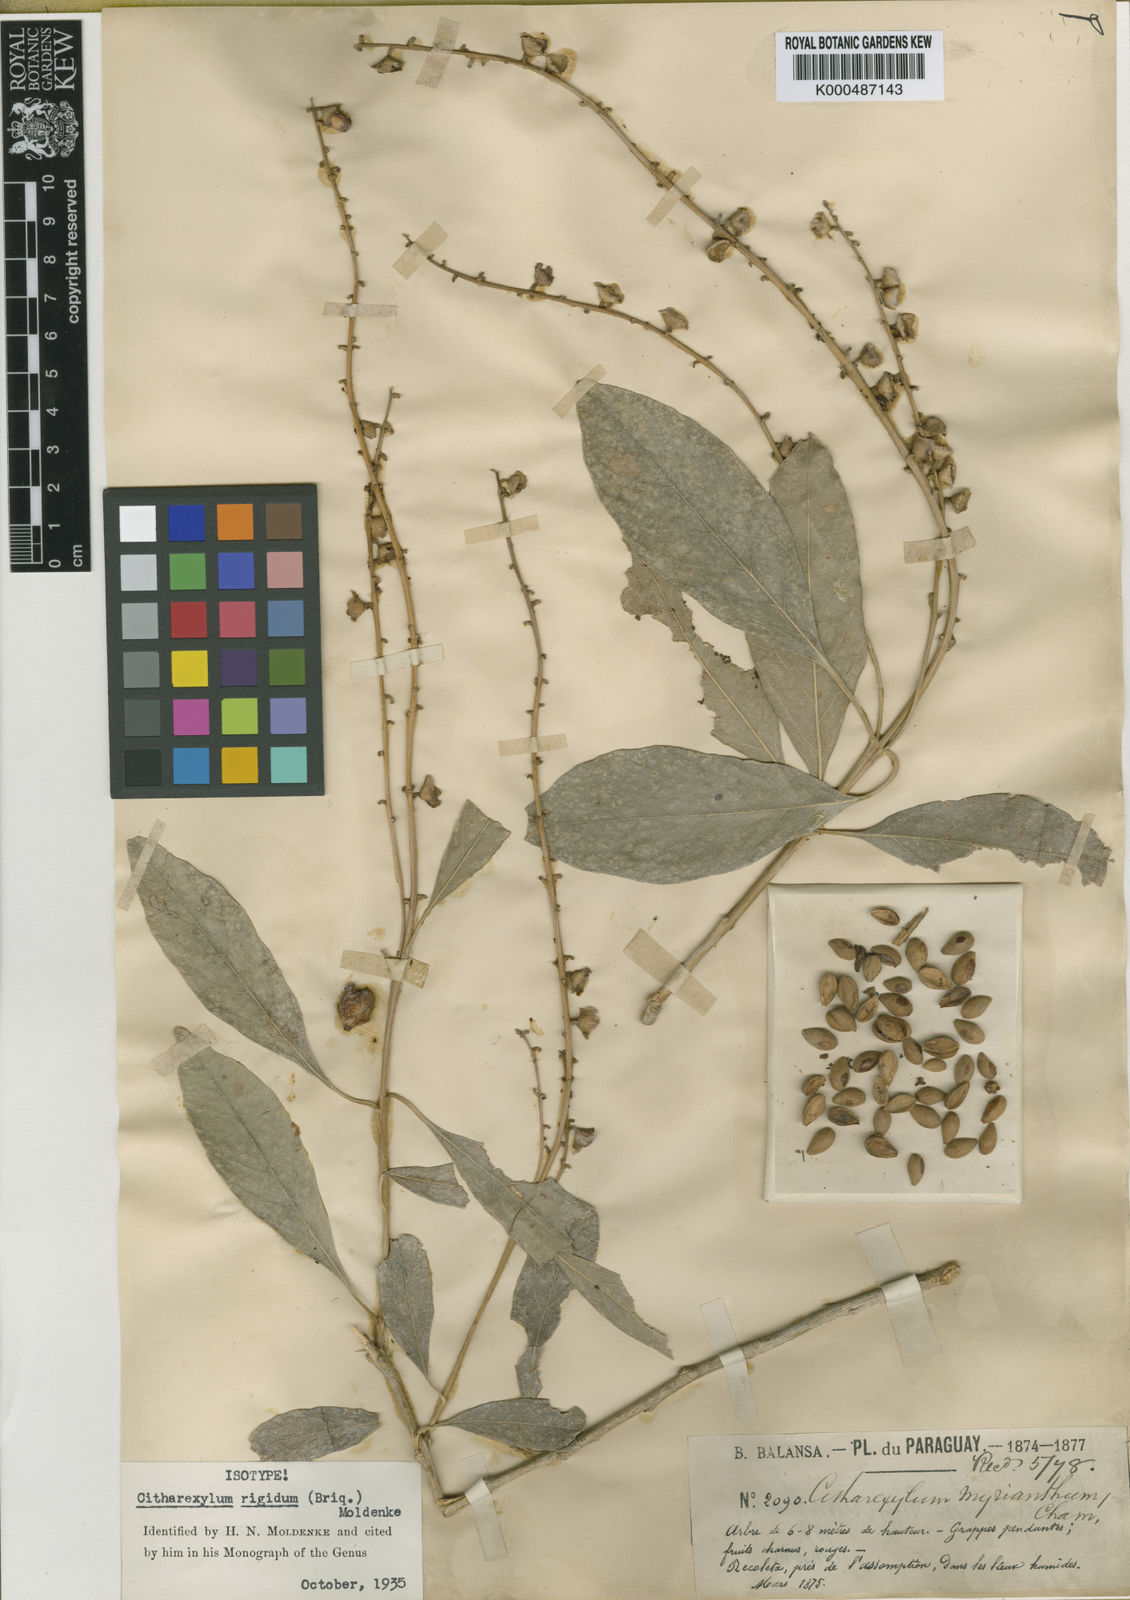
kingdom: Plantae
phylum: Tracheophyta
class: Magnoliopsida
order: Lamiales
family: Verbenaceae
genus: Citharexylum
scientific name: Citharexylum myrianthum
